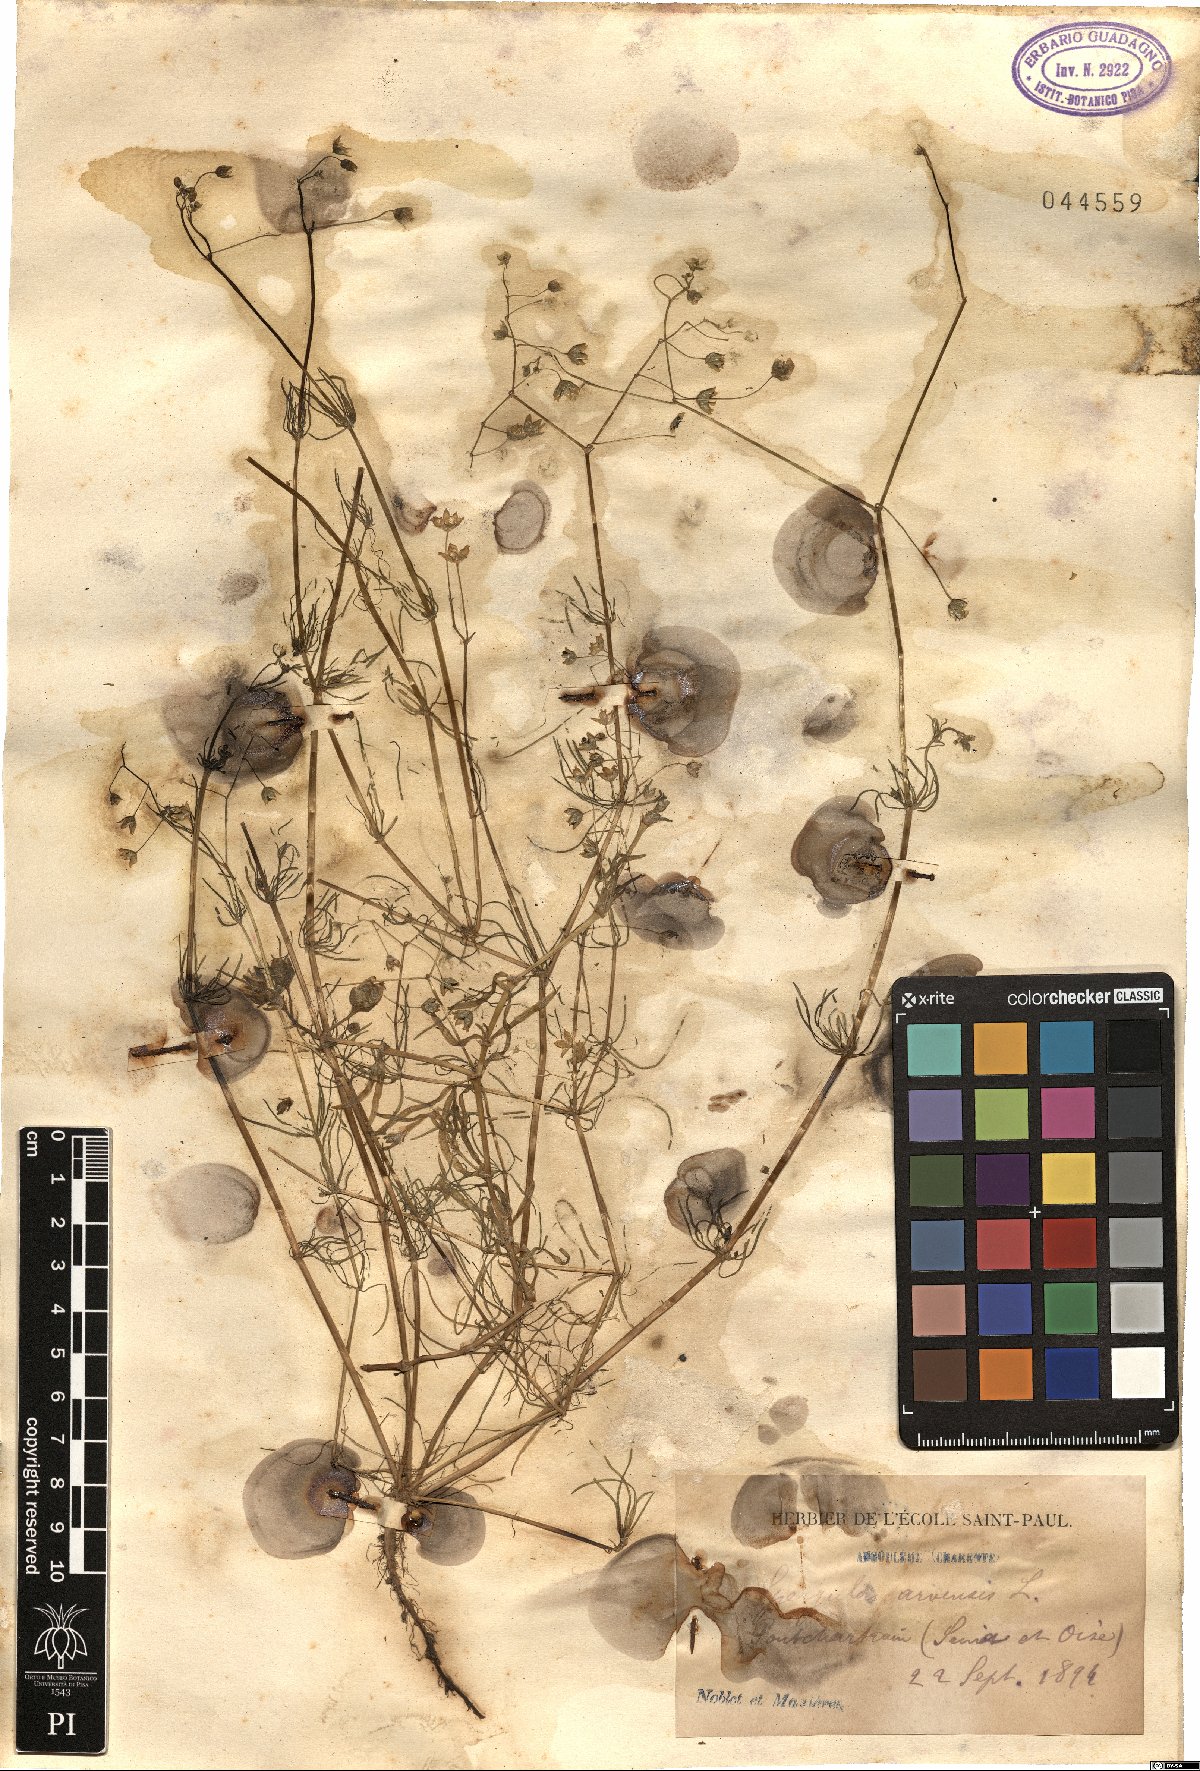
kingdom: Plantae
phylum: Tracheophyta
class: Magnoliopsida
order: Caryophyllales
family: Caryophyllaceae
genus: Spergula
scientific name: Spergula arvensis
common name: Corn spurrey
